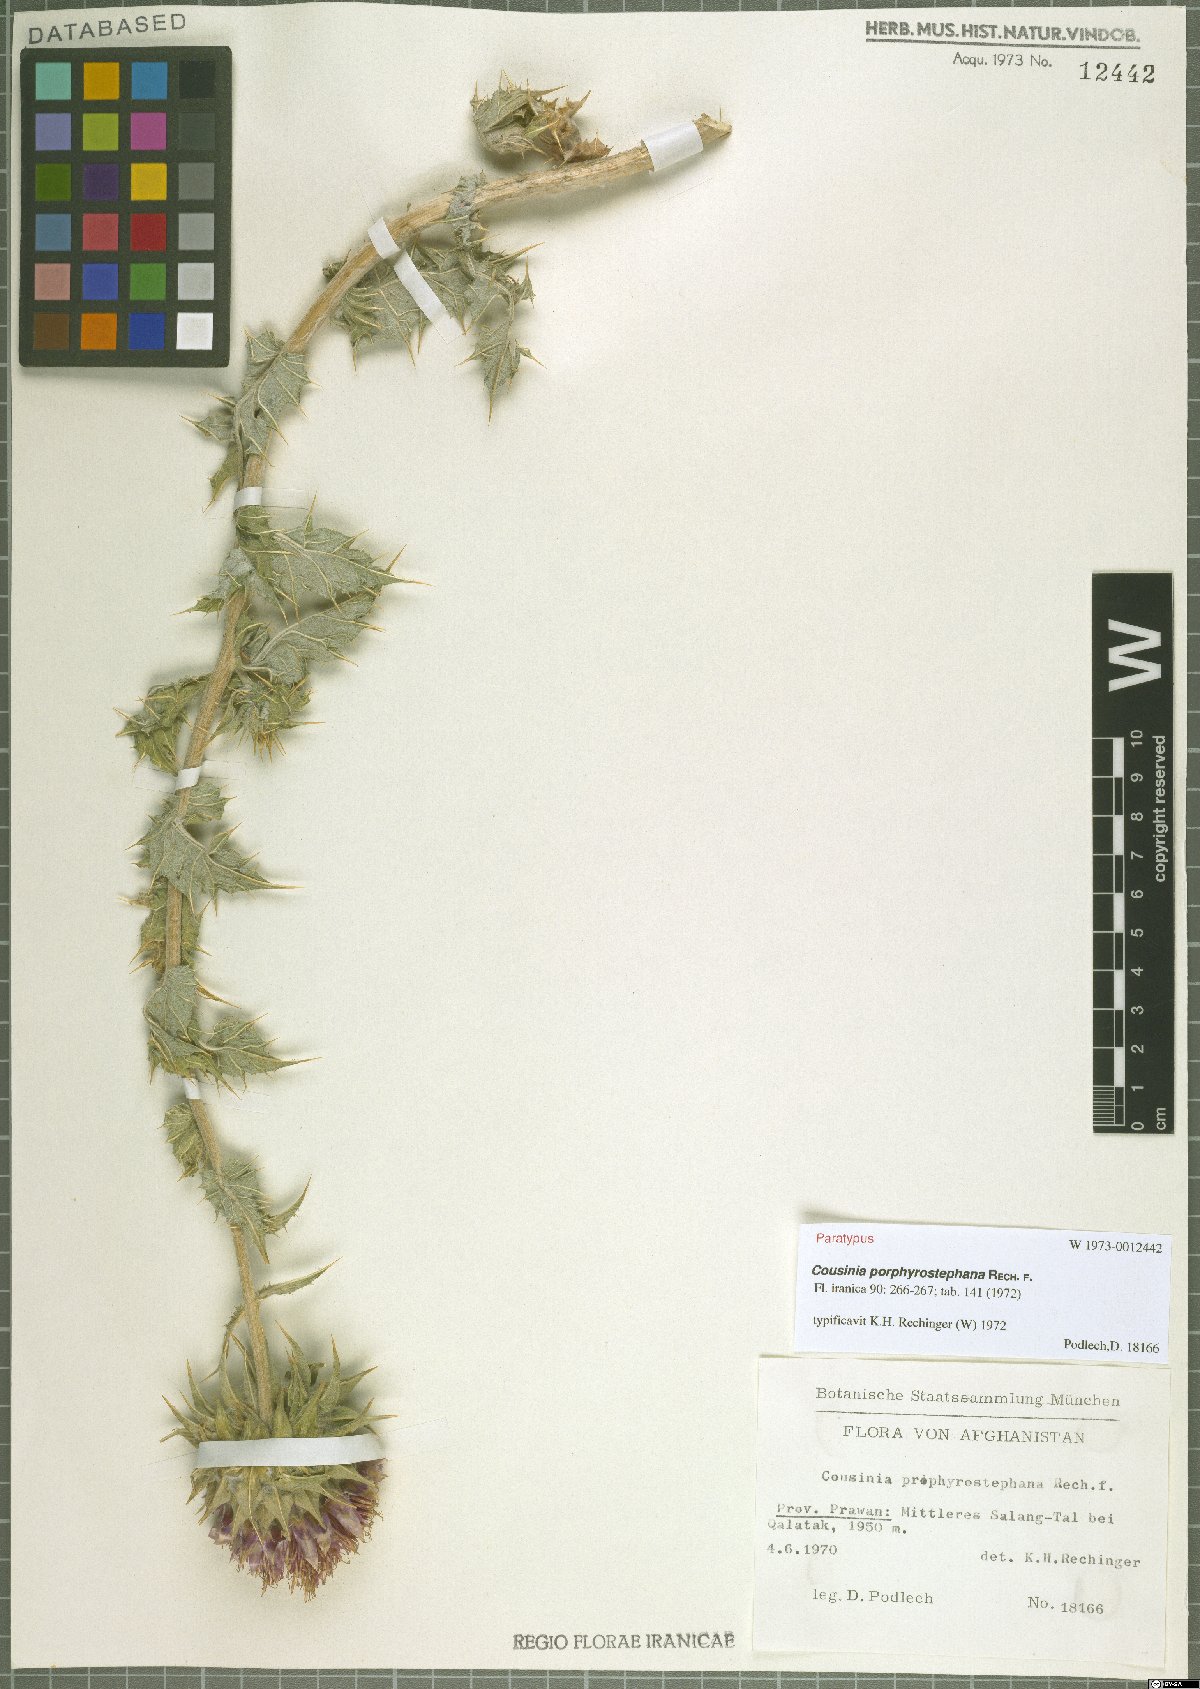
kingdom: Plantae
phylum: Tracheophyta
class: Magnoliopsida
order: Asterales
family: Asteraceae
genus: Cousinia
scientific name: Cousinia porphyrostephana
